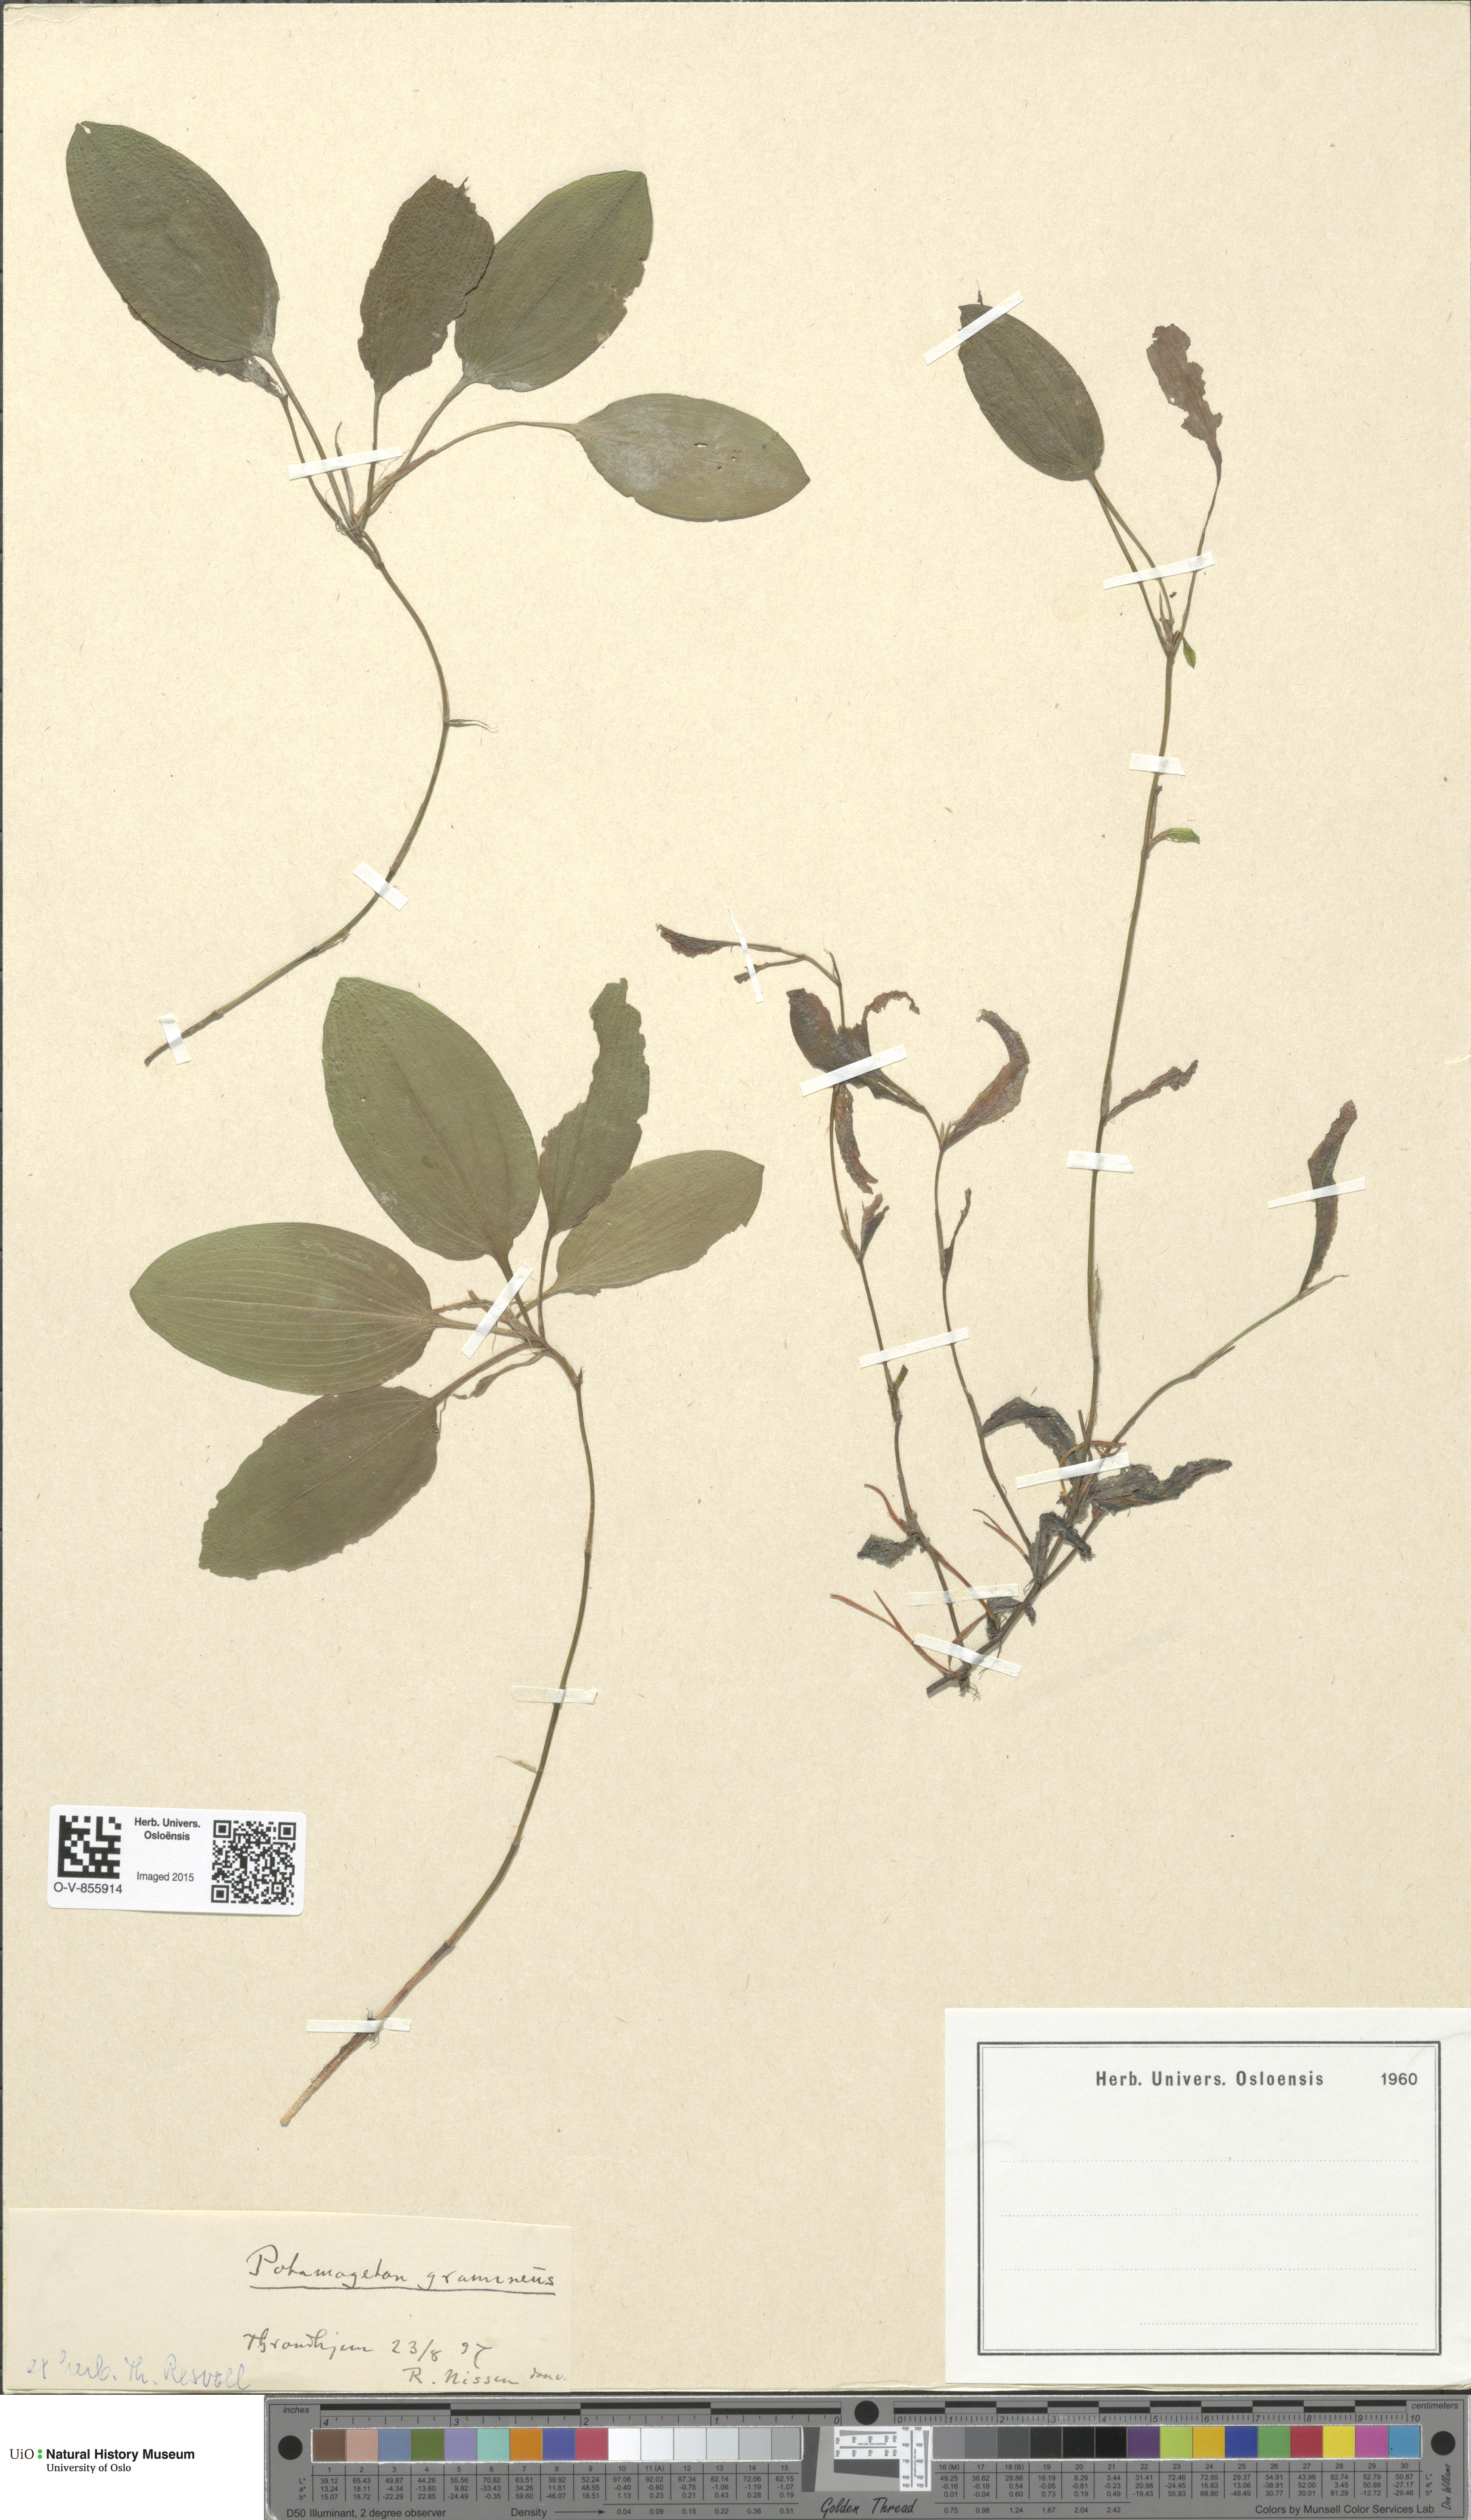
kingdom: Plantae
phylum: Tracheophyta
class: Liliopsida
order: Alismatales
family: Potamogetonaceae
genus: Potamogeton
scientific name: Potamogeton gramineus
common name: Various-leaved pondweed
